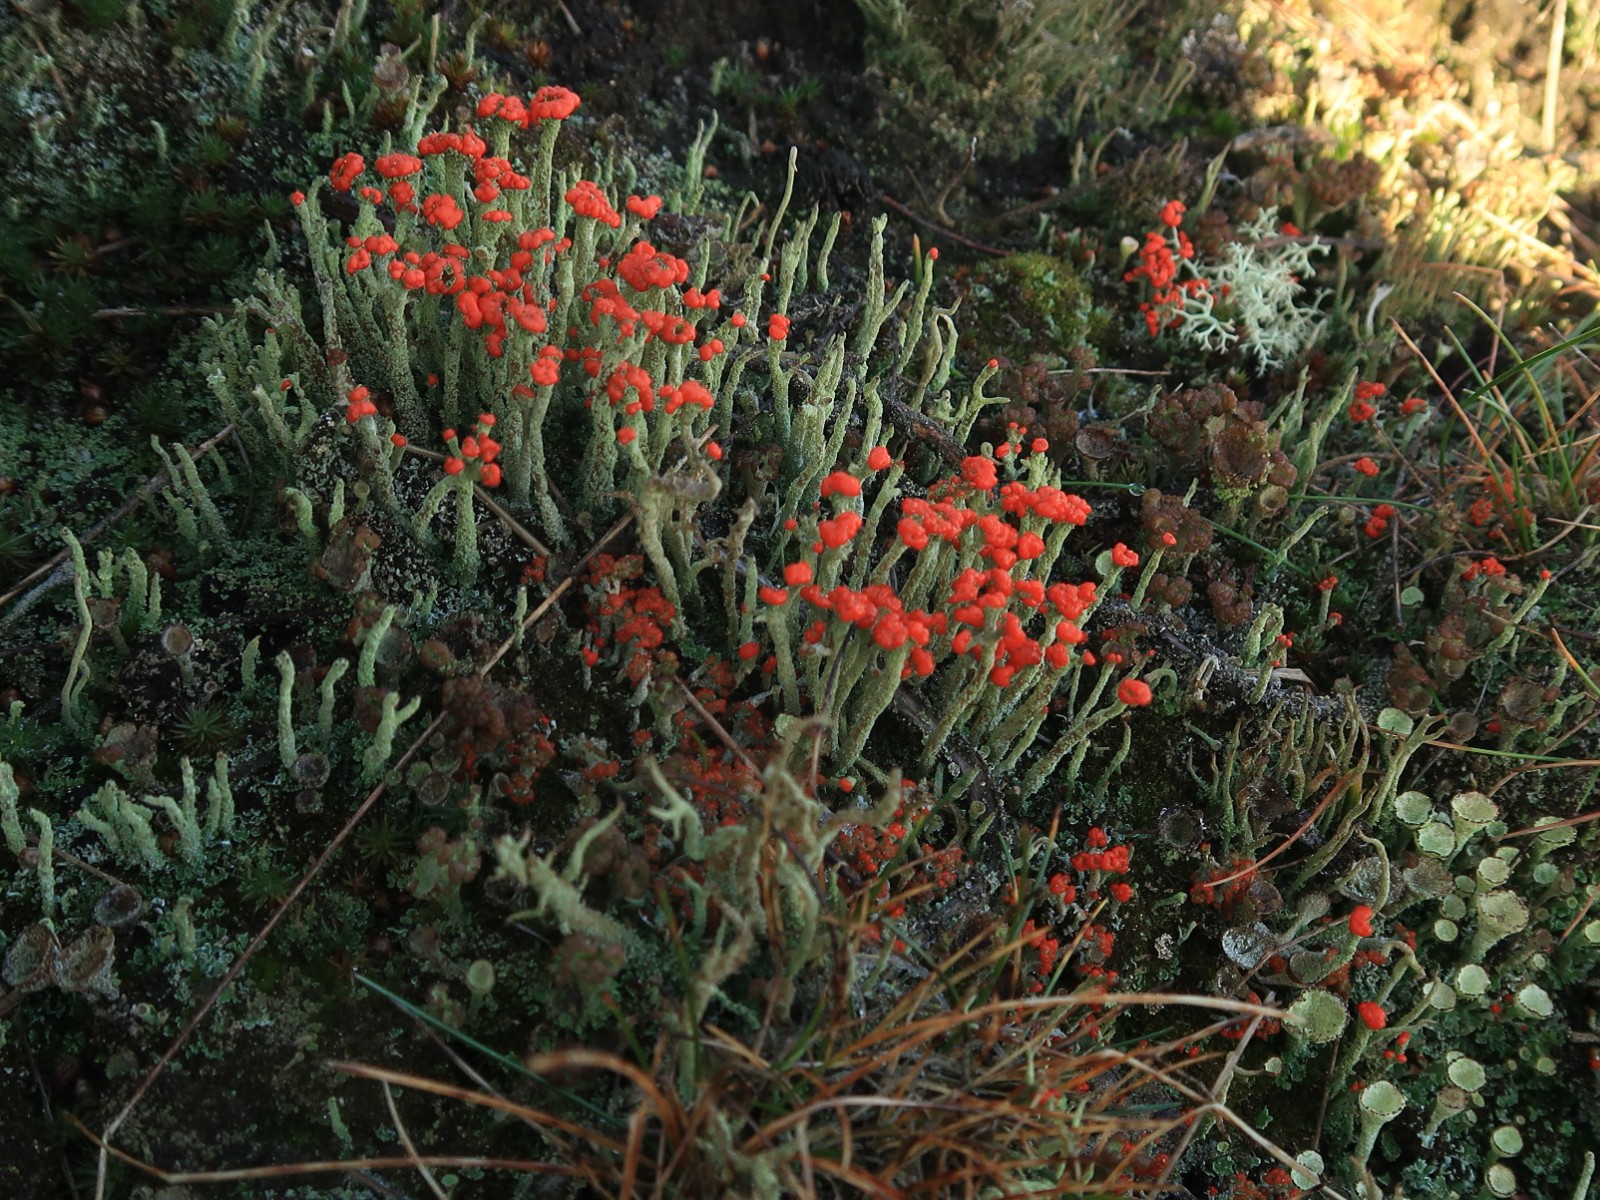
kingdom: Fungi
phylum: Ascomycota
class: Lecanoromycetes
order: Lecanorales
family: Cladoniaceae
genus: Cladonia
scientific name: Cladonia floerkeana
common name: lakrød bægerlav
